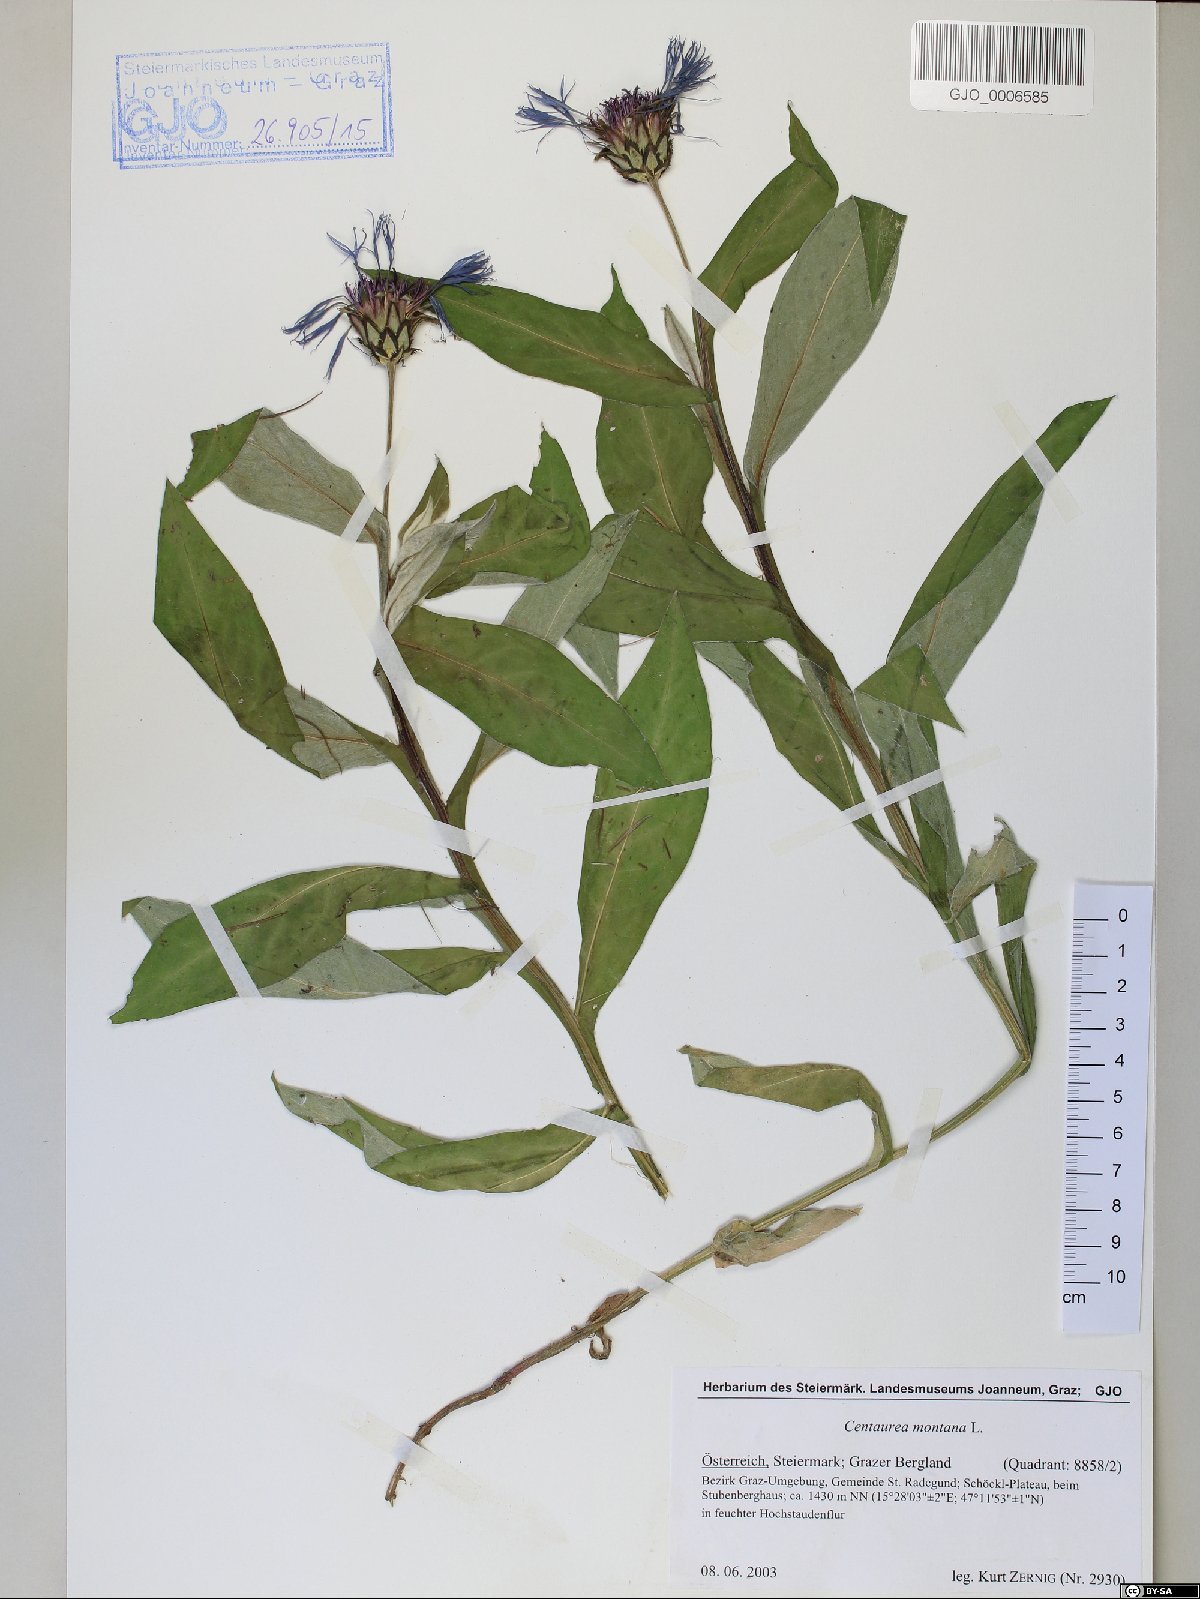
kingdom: Plantae
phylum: Tracheophyta
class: Magnoliopsida
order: Asterales
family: Asteraceae
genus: Centaurea
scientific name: Centaurea montana
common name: Perennial cornflower
